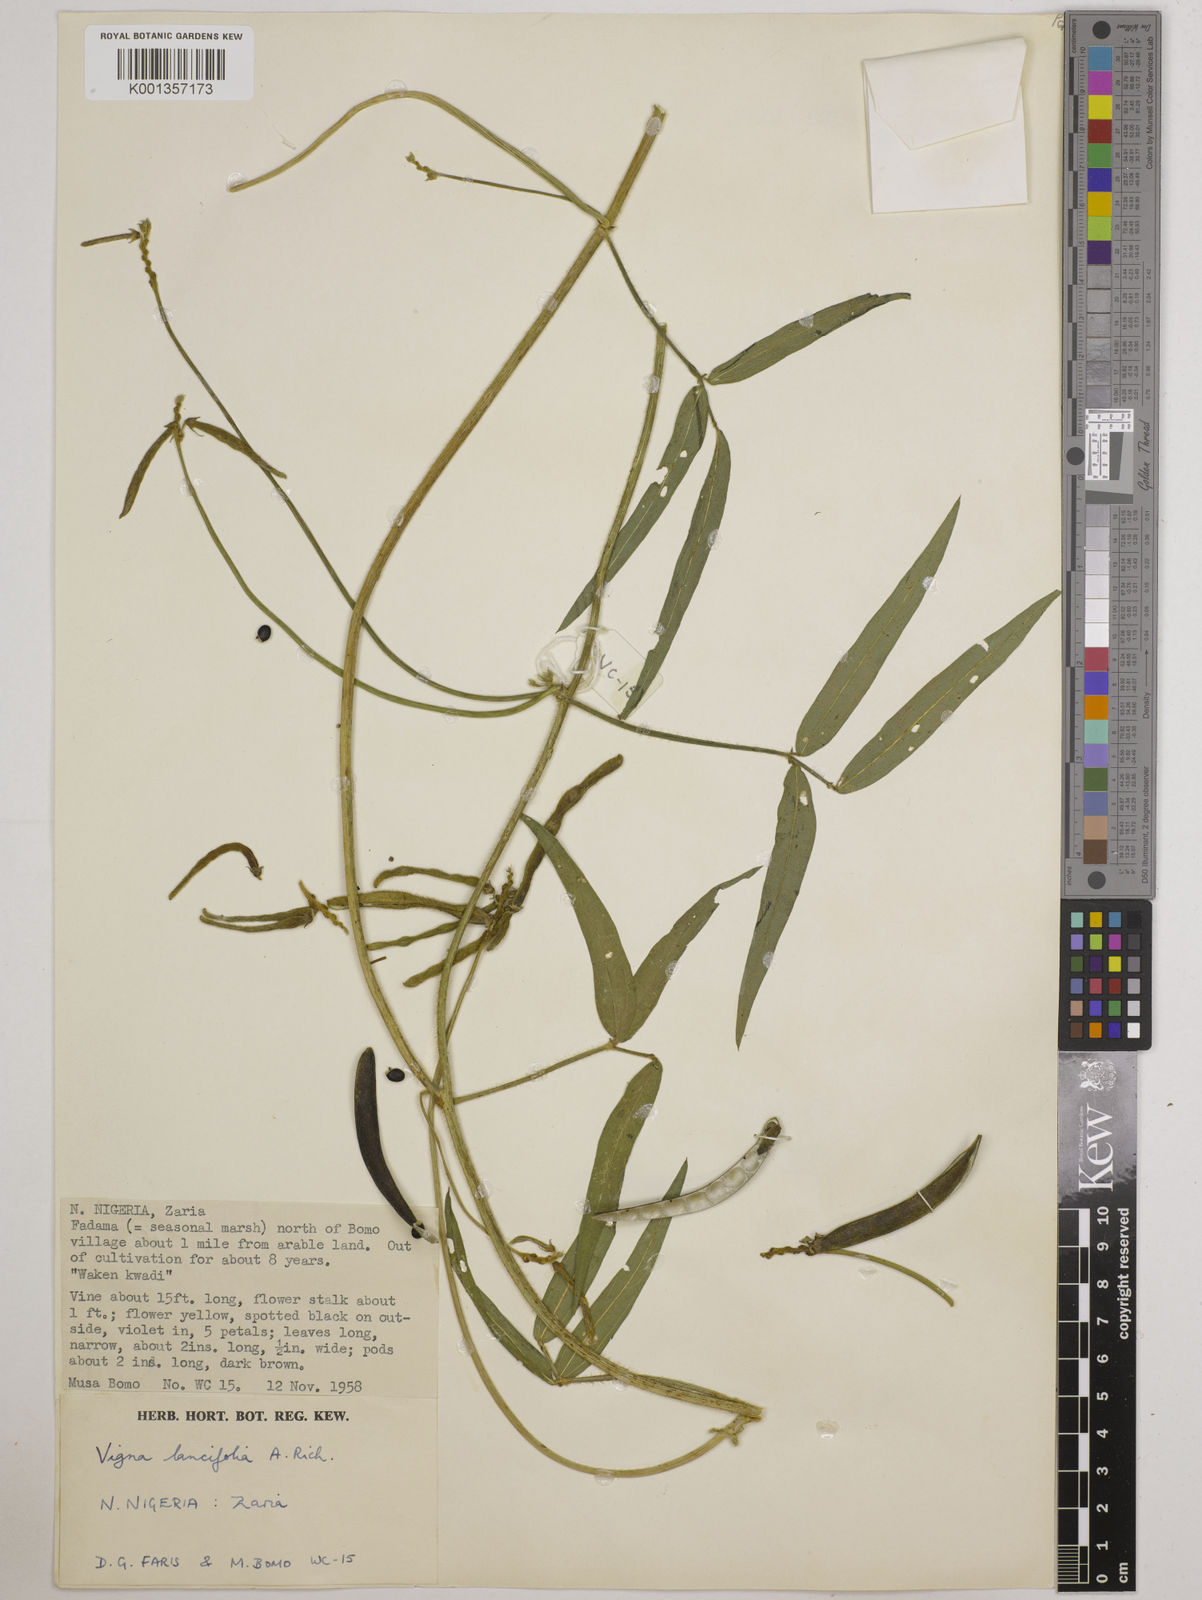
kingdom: Plantae
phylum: Tracheophyta
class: Magnoliopsida
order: Fabales
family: Fabaceae
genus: Vigna
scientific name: Vigna oblongifolia
